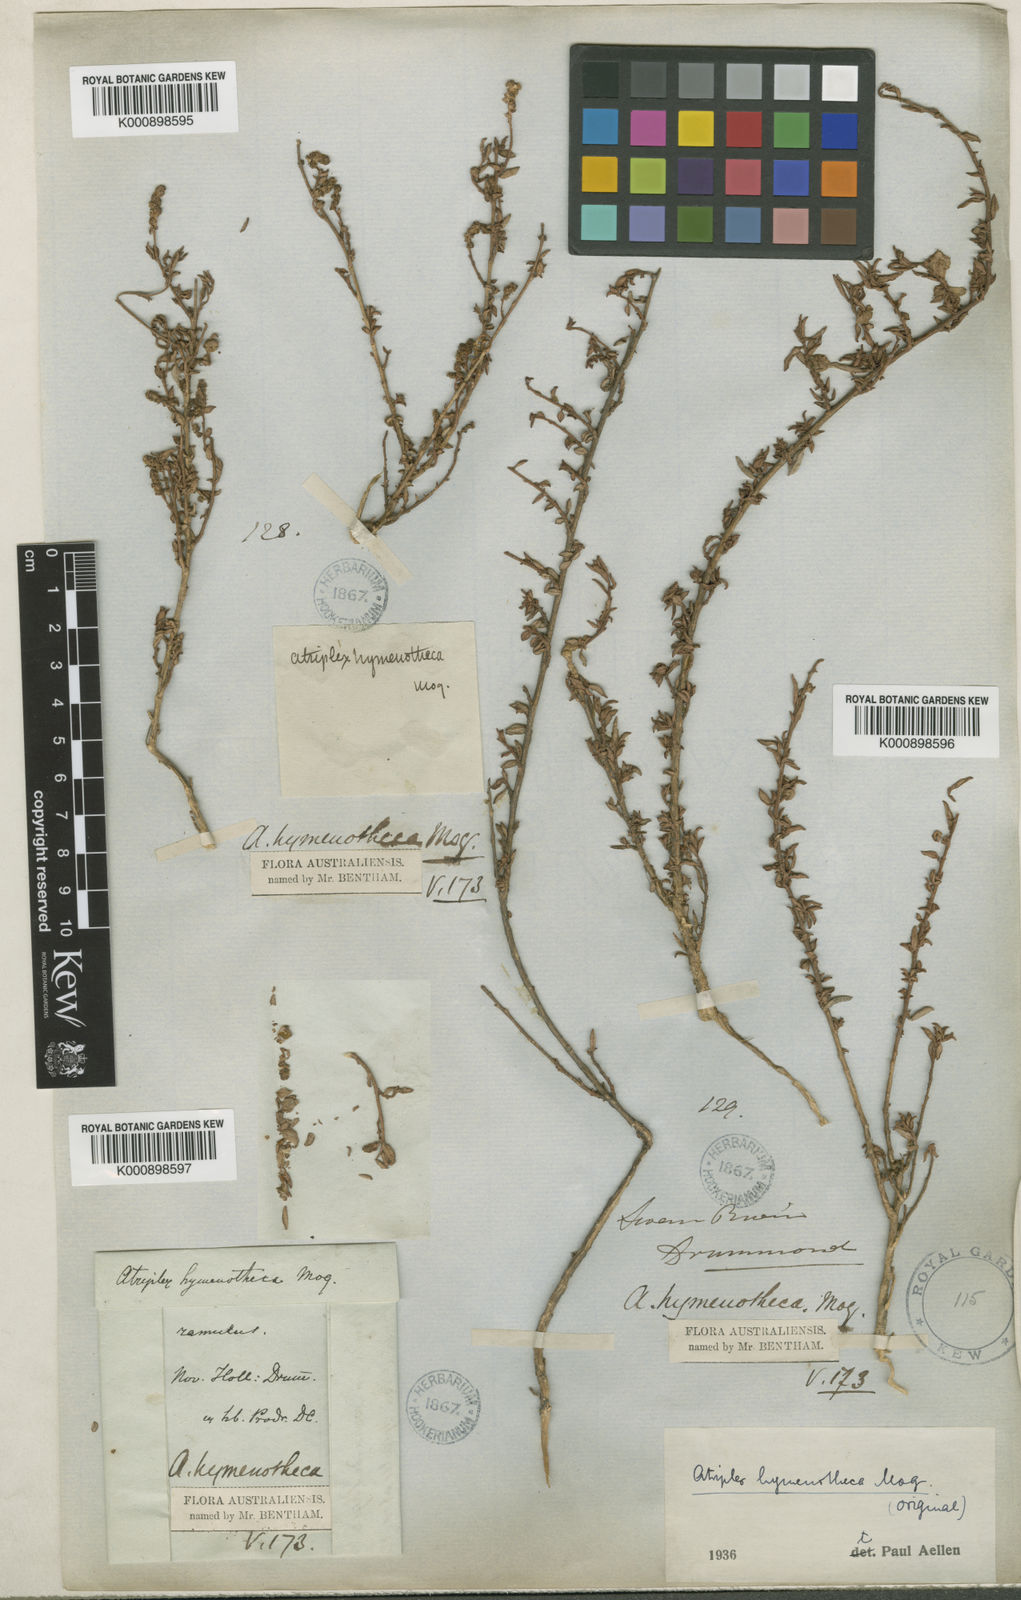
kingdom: Plantae
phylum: Tracheophyta
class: Magnoliopsida
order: Caryophyllales
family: Amaranthaceae
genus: Atriplex
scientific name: Atriplex hymenotheca
